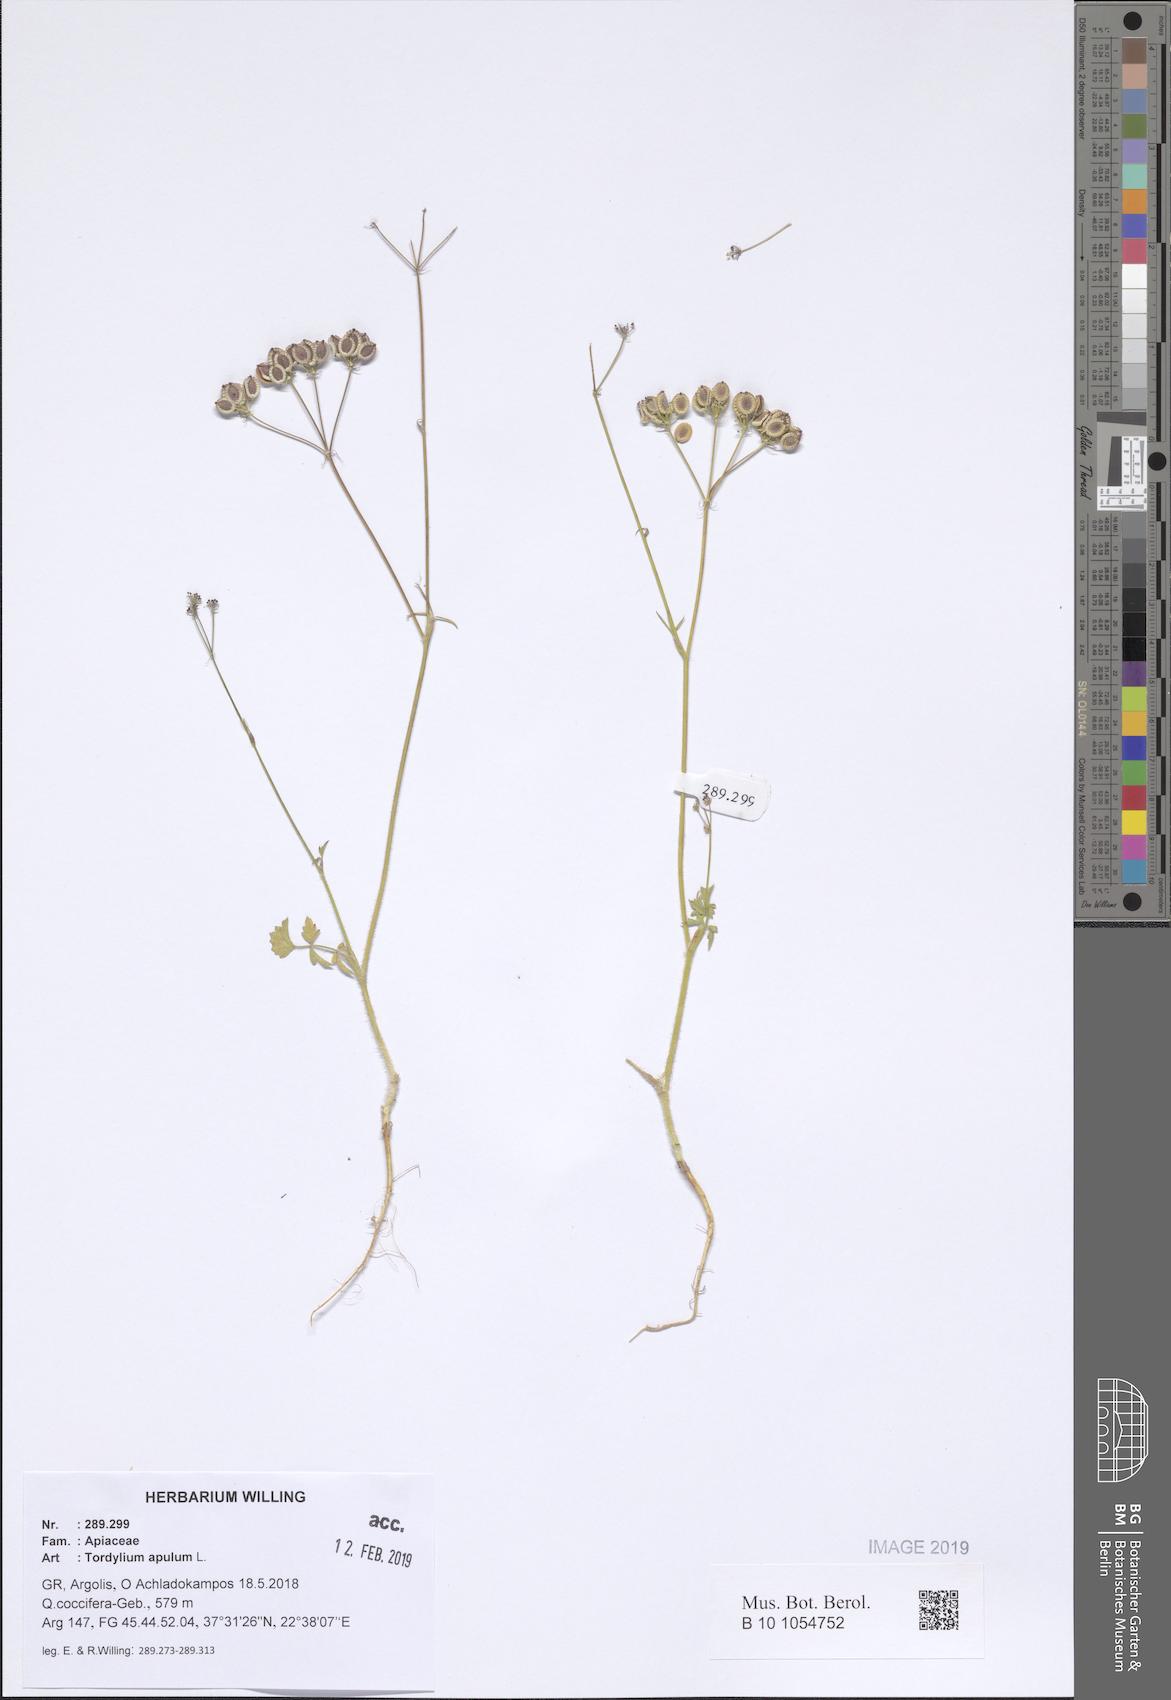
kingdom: Plantae
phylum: Tracheophyta
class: Magnoliopsida
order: Apiales
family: Apiaceae
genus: Tordylium
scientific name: Tordylium apulum
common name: Mediterranean hartwort
